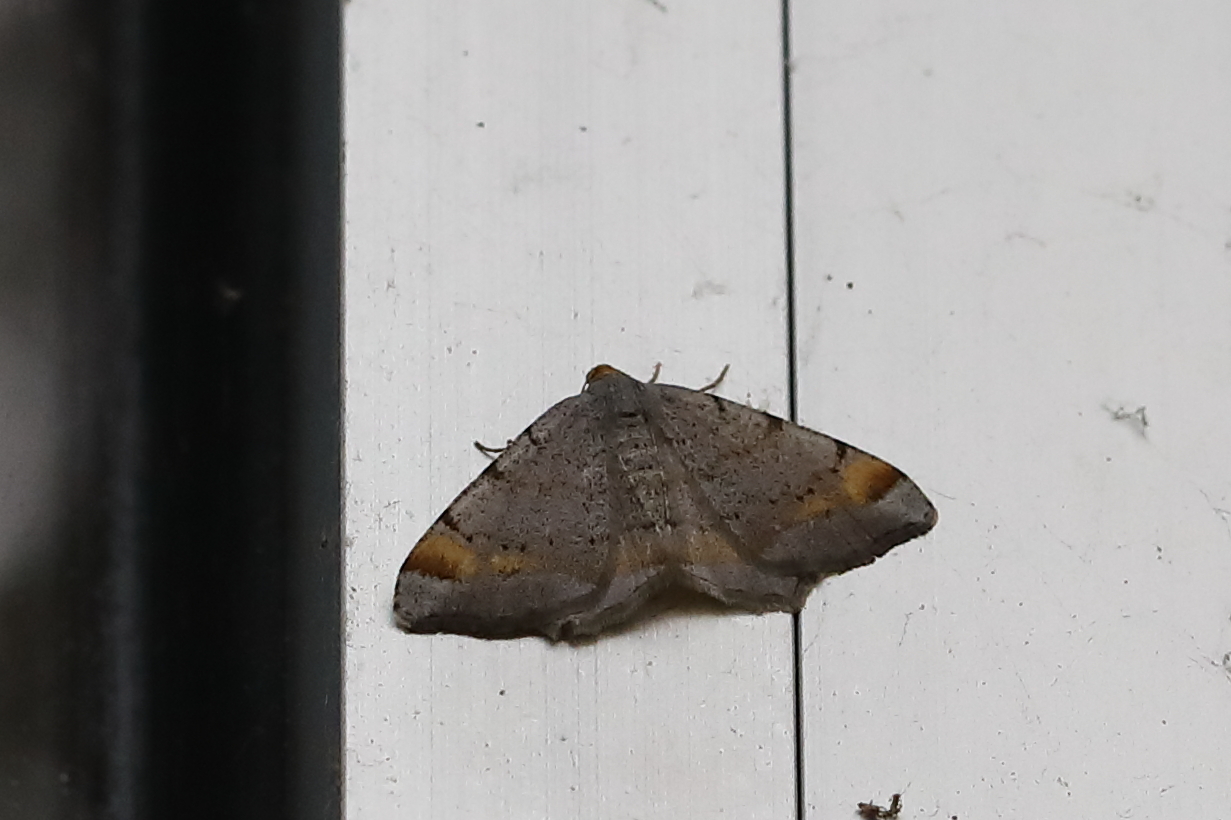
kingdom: Animalia
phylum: Arthropoda
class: Insecta
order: Lepidoptera
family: Geometridae
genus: Macaria
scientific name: Macaria liturata
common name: Tawny-barred angle
